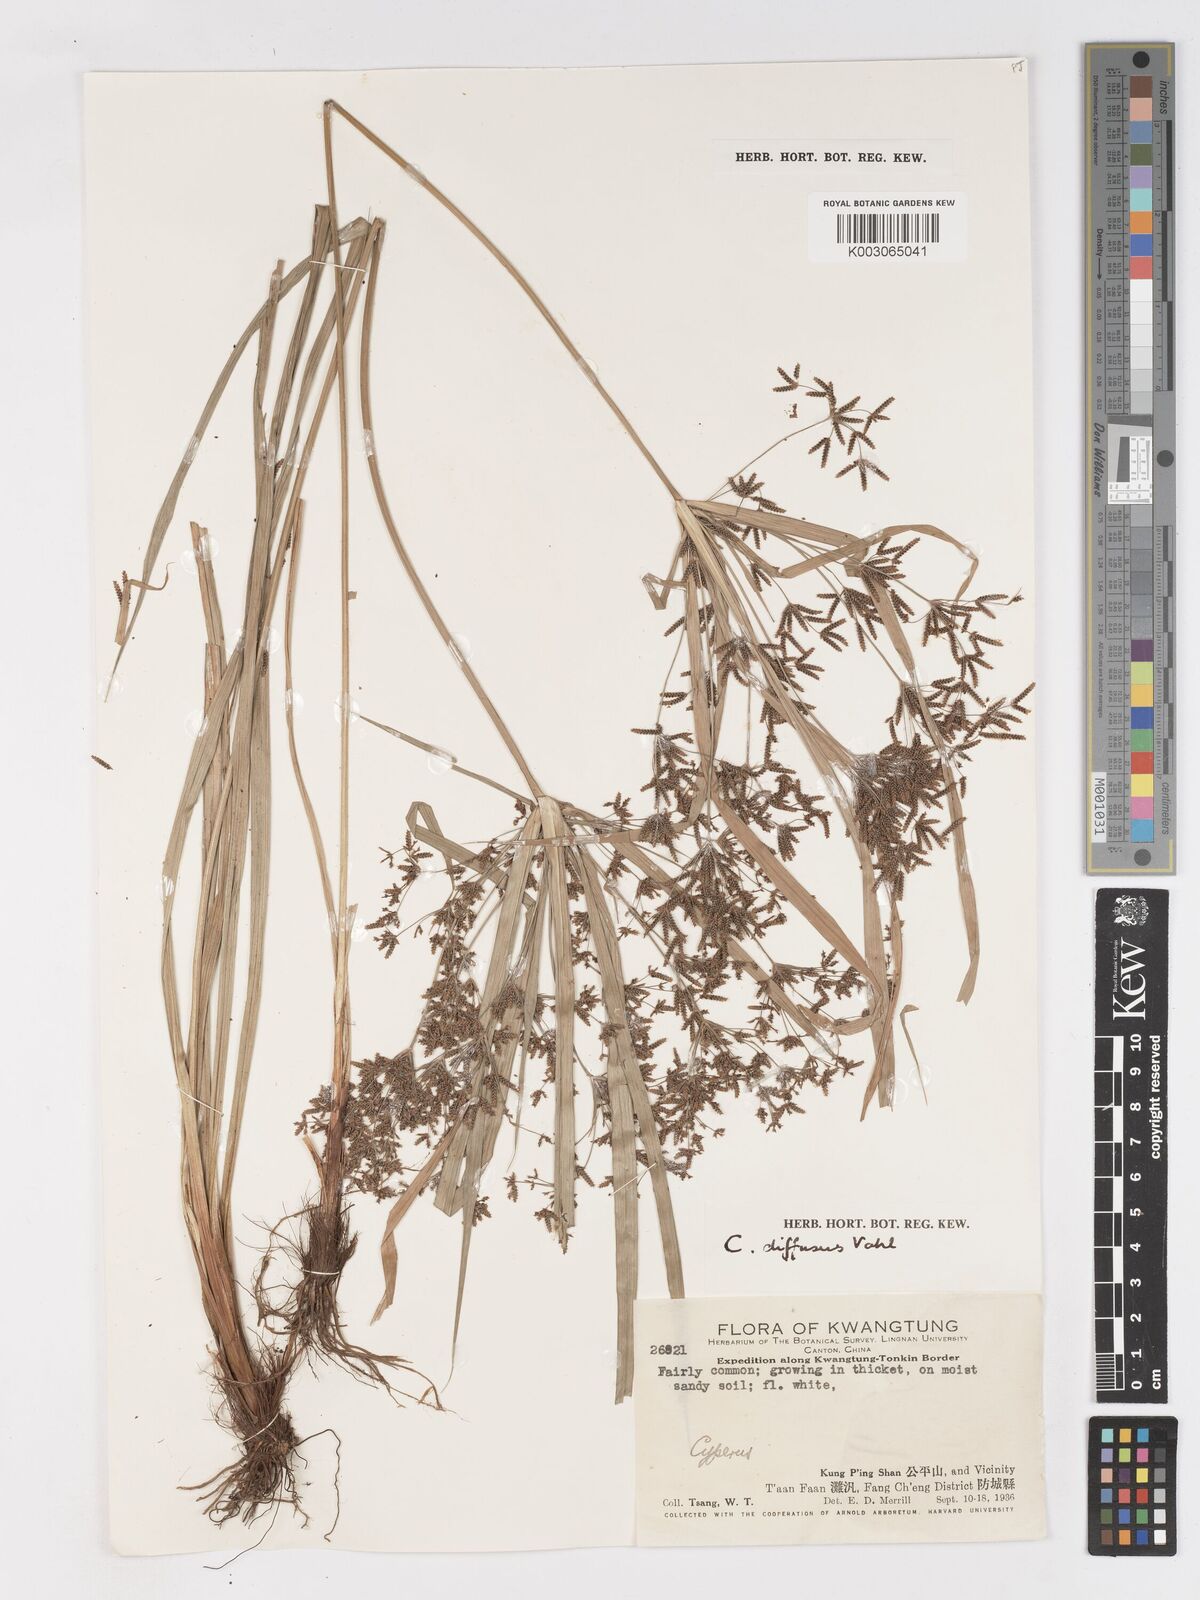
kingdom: Plantae
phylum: Tracheophyta
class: Liliopsida
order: Poales
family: Cyperaceae
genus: Cyperus
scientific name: Cyperus diffusus
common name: Dwarf umbrella grass
